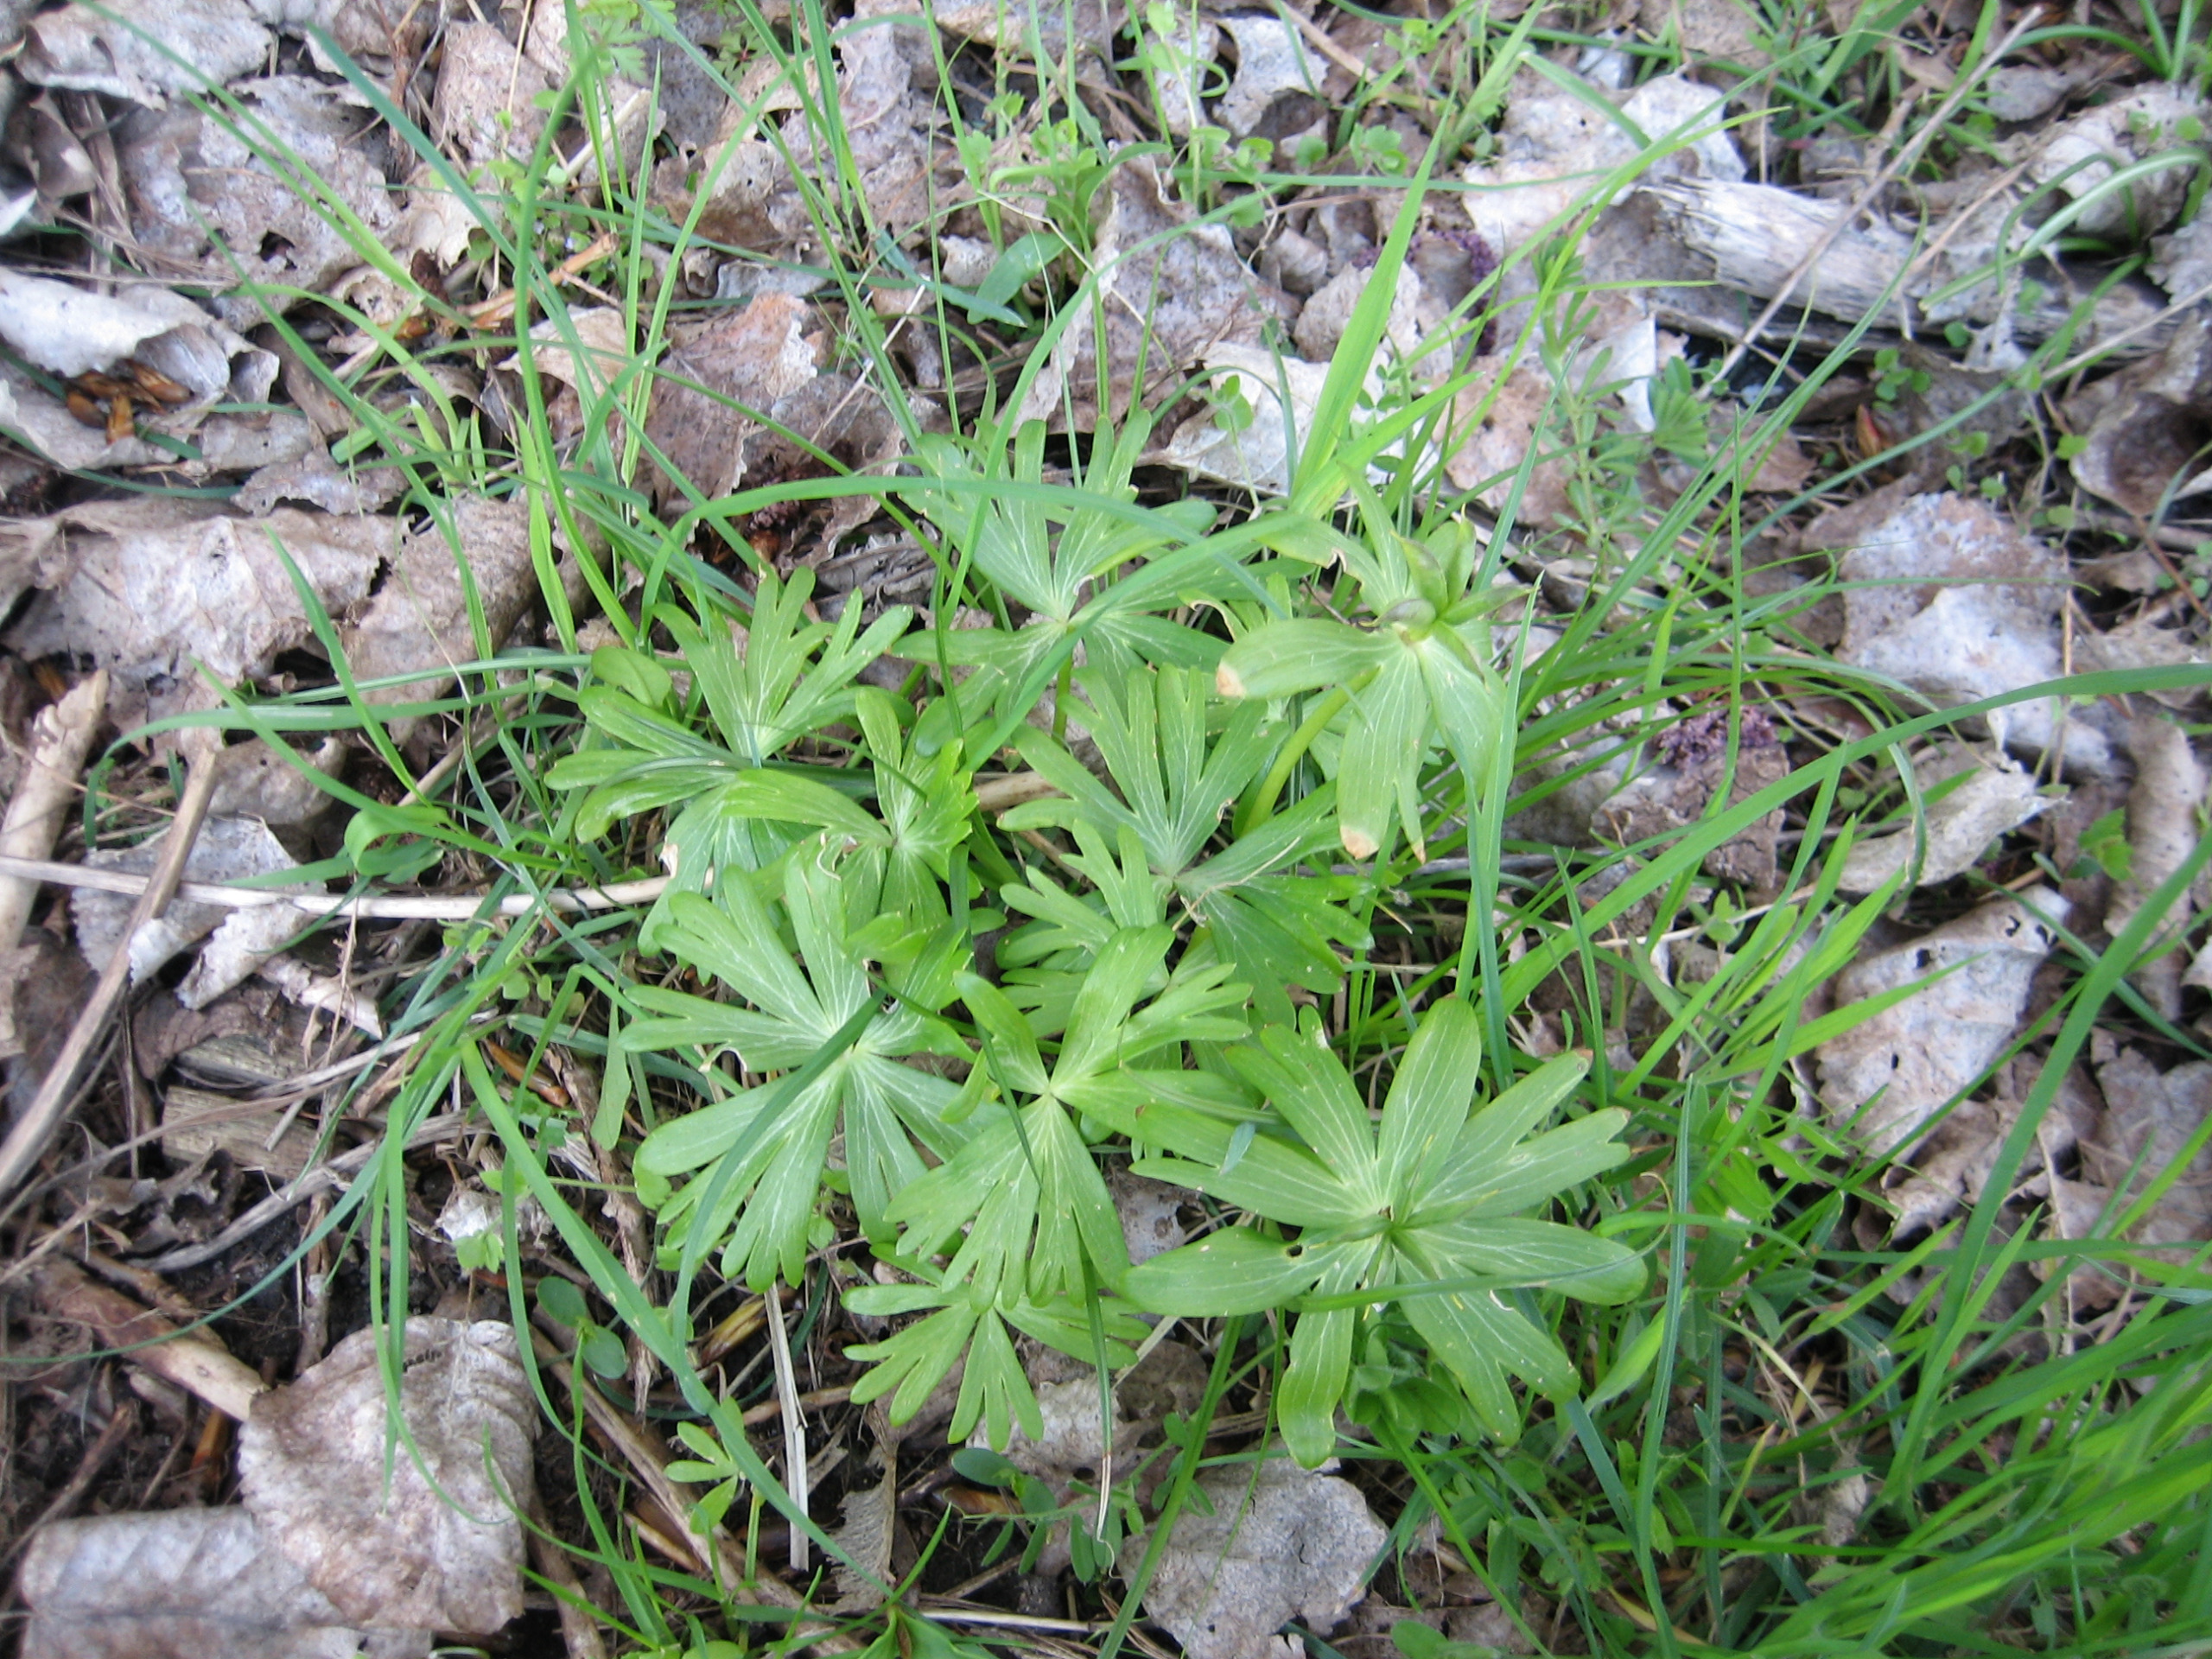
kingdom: Plantae
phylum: Tracheophyta
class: Magnoliopsida
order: Ranunculales
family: Ranunculaceae
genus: Eranthis
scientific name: Eranthis hyemalis
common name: Erantis
